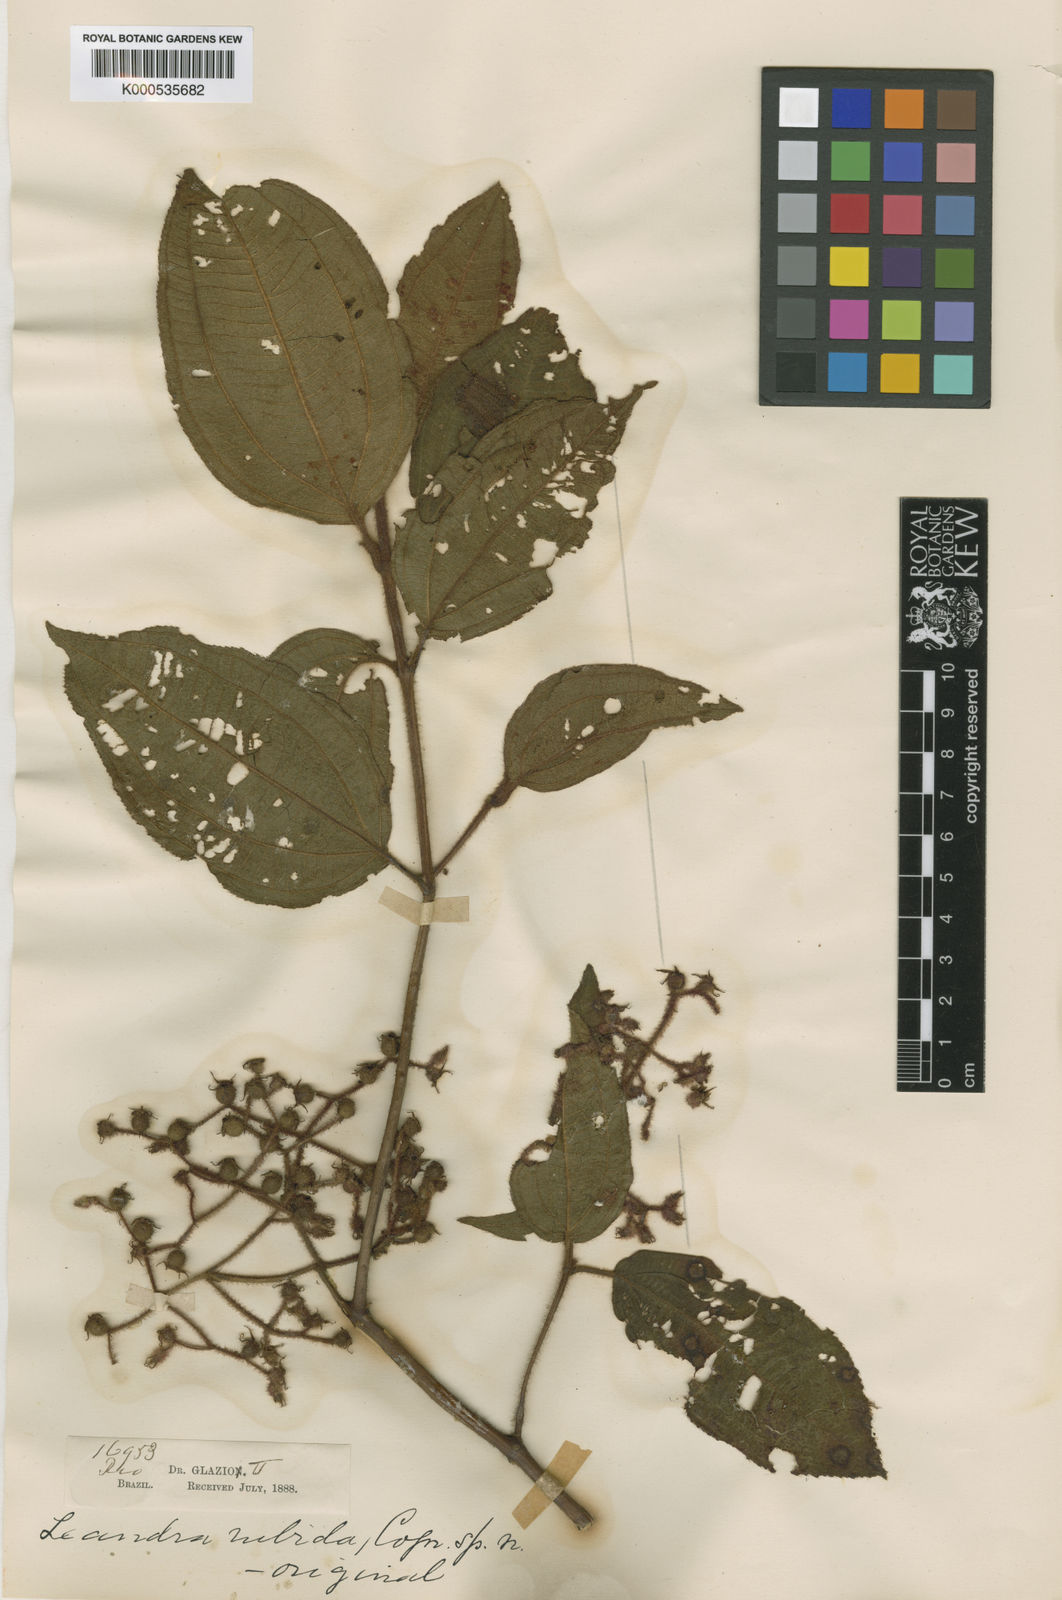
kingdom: Plantae
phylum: Tracheophyta
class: Magnoliopsida
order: Myrtales
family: Melastomataceae
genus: Miconia
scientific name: Miconia rubida
